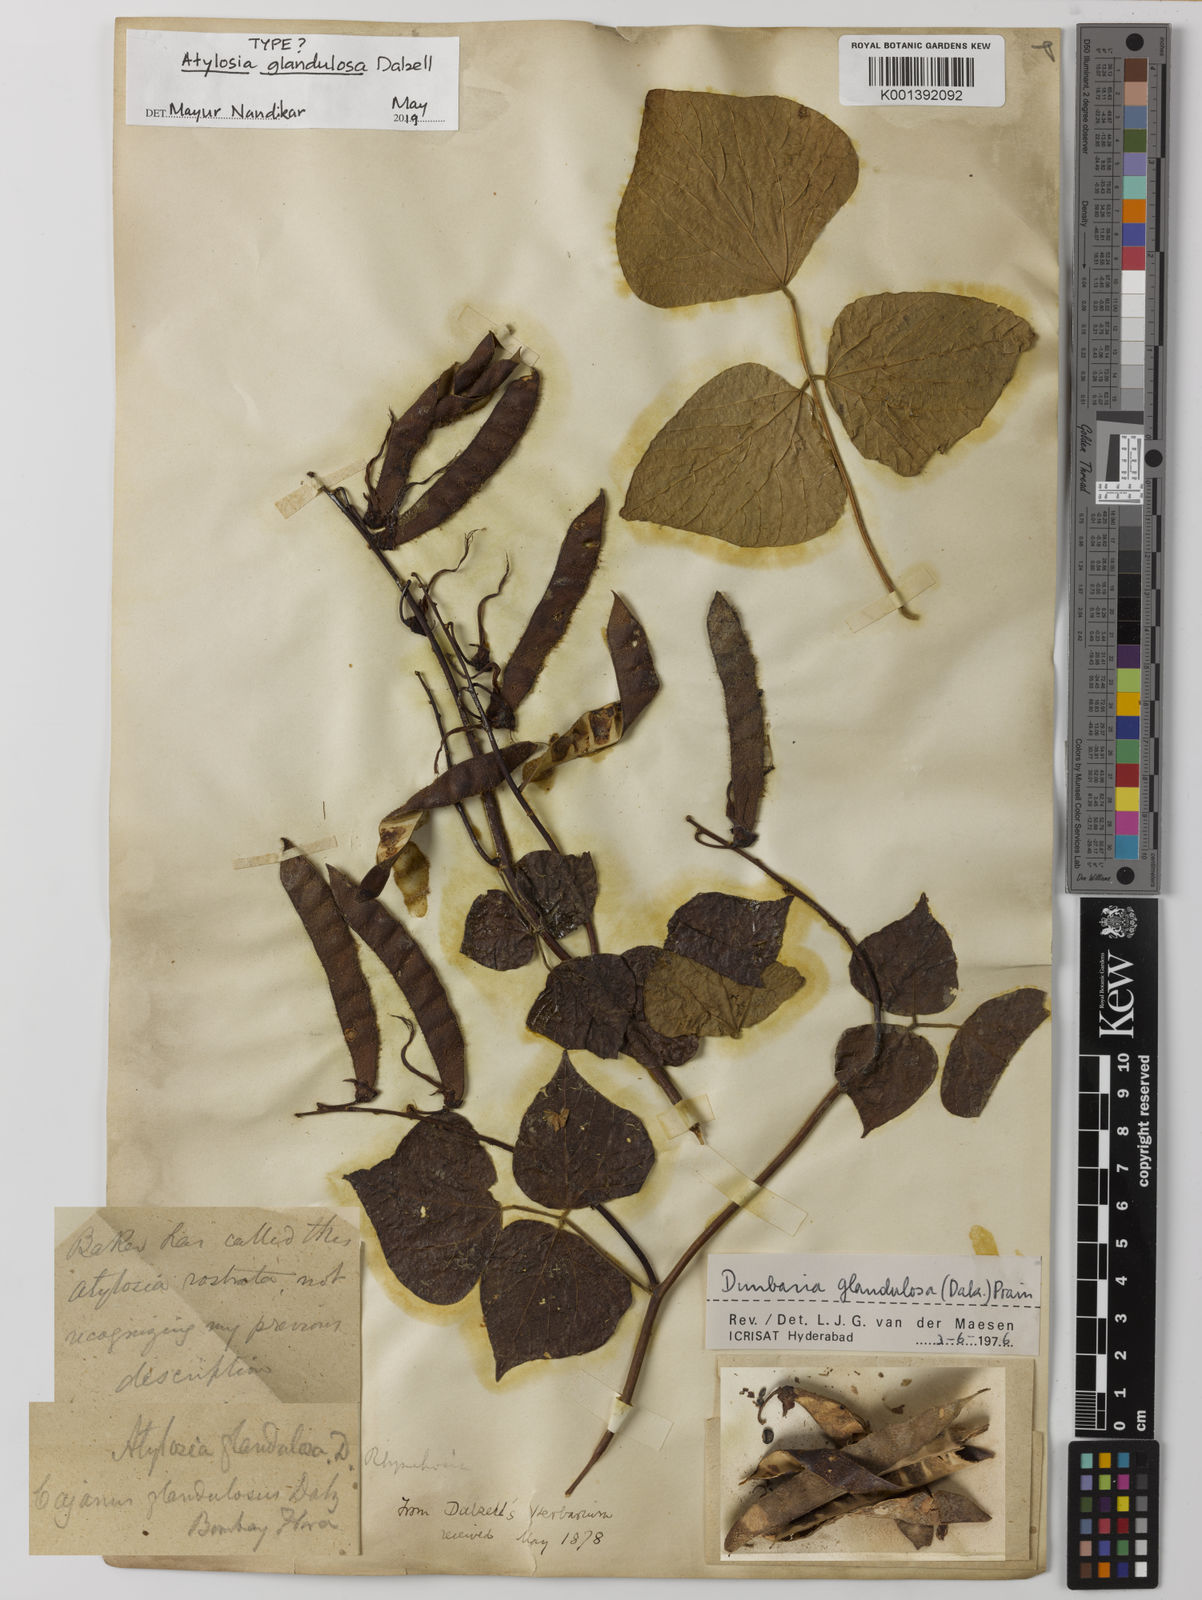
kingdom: Plantae
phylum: Tracheophyta
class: Magnoliopsida
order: Fabales
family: Fabaceae
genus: Cajanus
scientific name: Cajanus mollis
